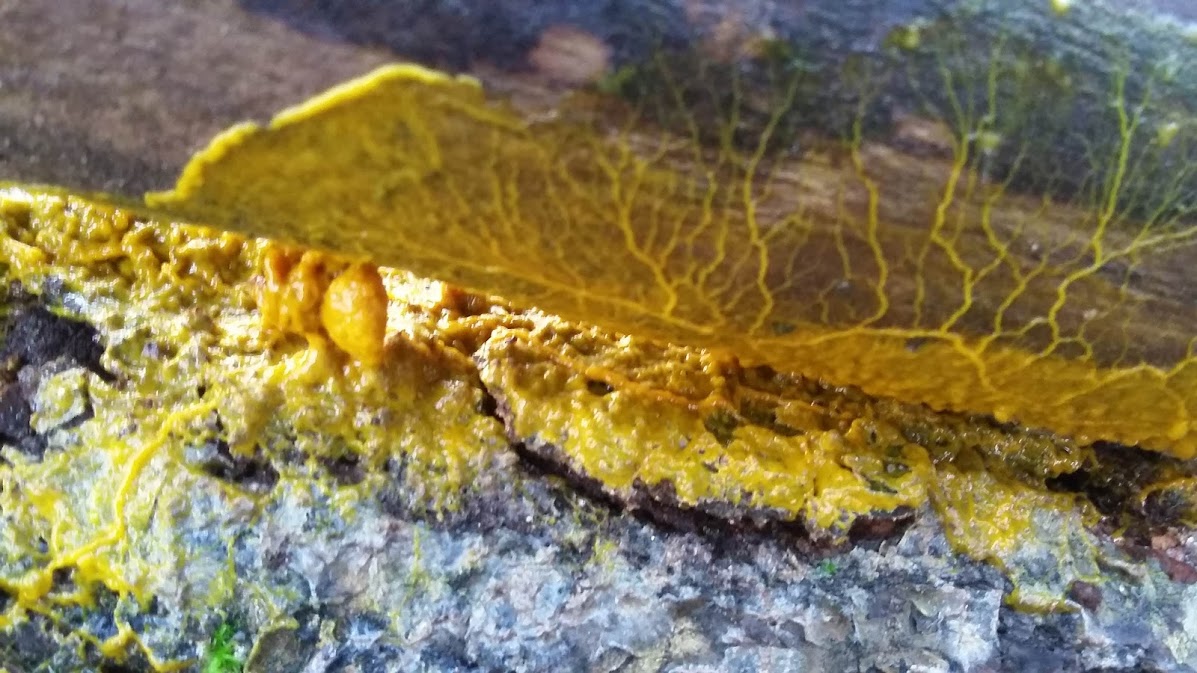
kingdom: Protozoa
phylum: Mycetozoa
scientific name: Mycetozoa
